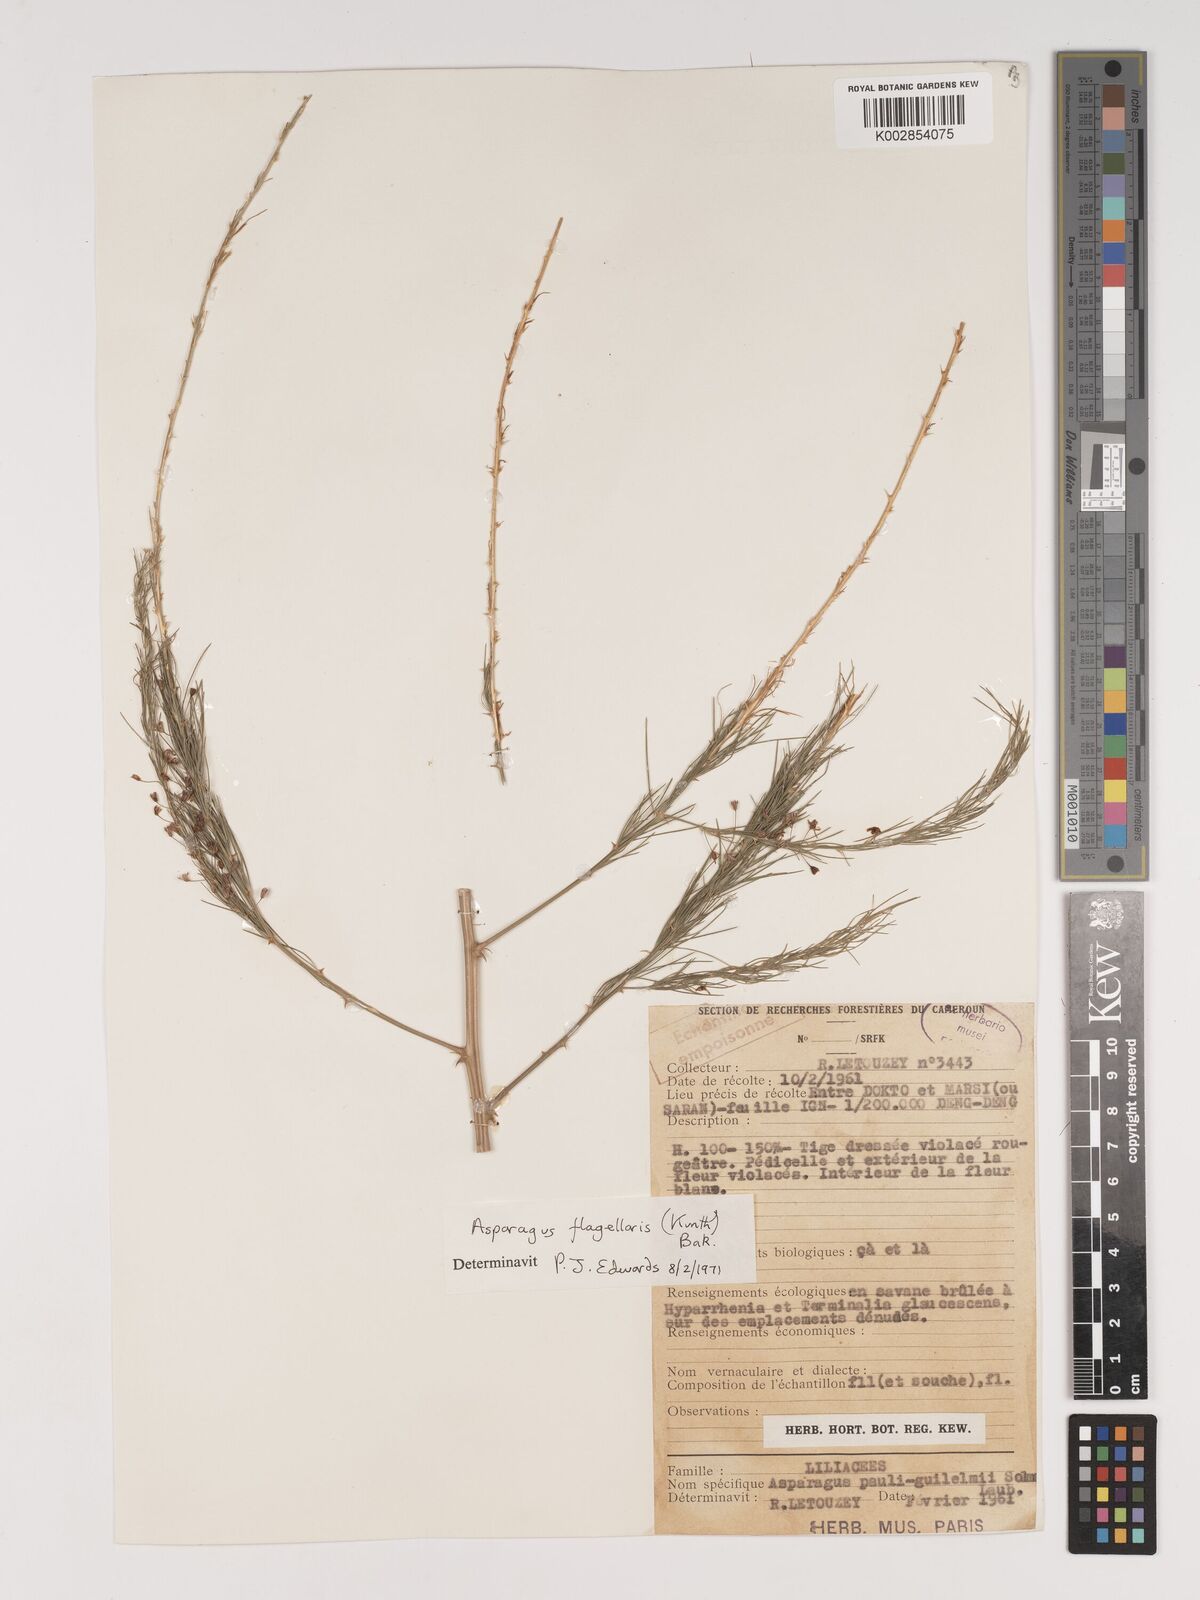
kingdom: Plantae
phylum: Tracheophyta
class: Liliopsida
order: Asparagales
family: Asparagaceae
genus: Asparagus
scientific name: Asparagus flagellaris
